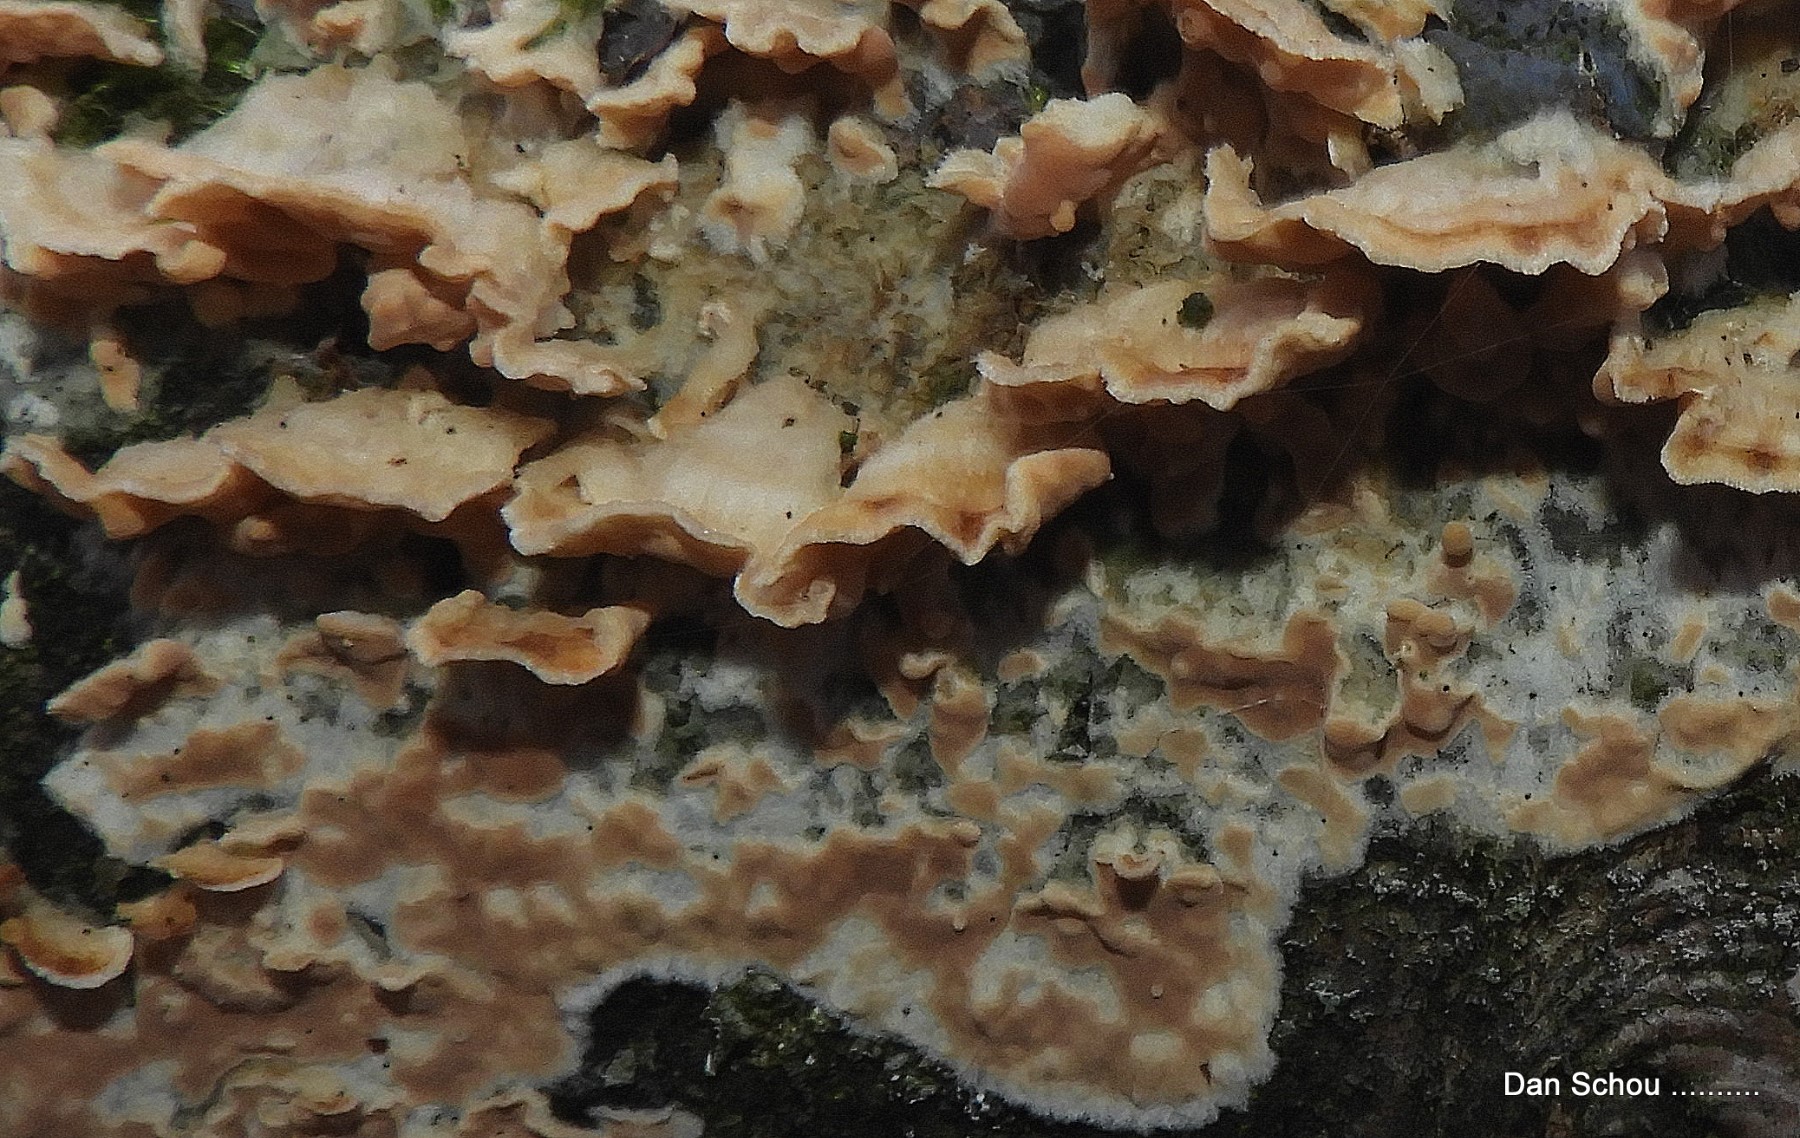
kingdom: Fungi
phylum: Basidiomycota
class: Agaricomycetes
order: Polyporales
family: Meruliaceae
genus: Phlebia
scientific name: Phlebia tremellosa
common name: bævrende åresvamp
